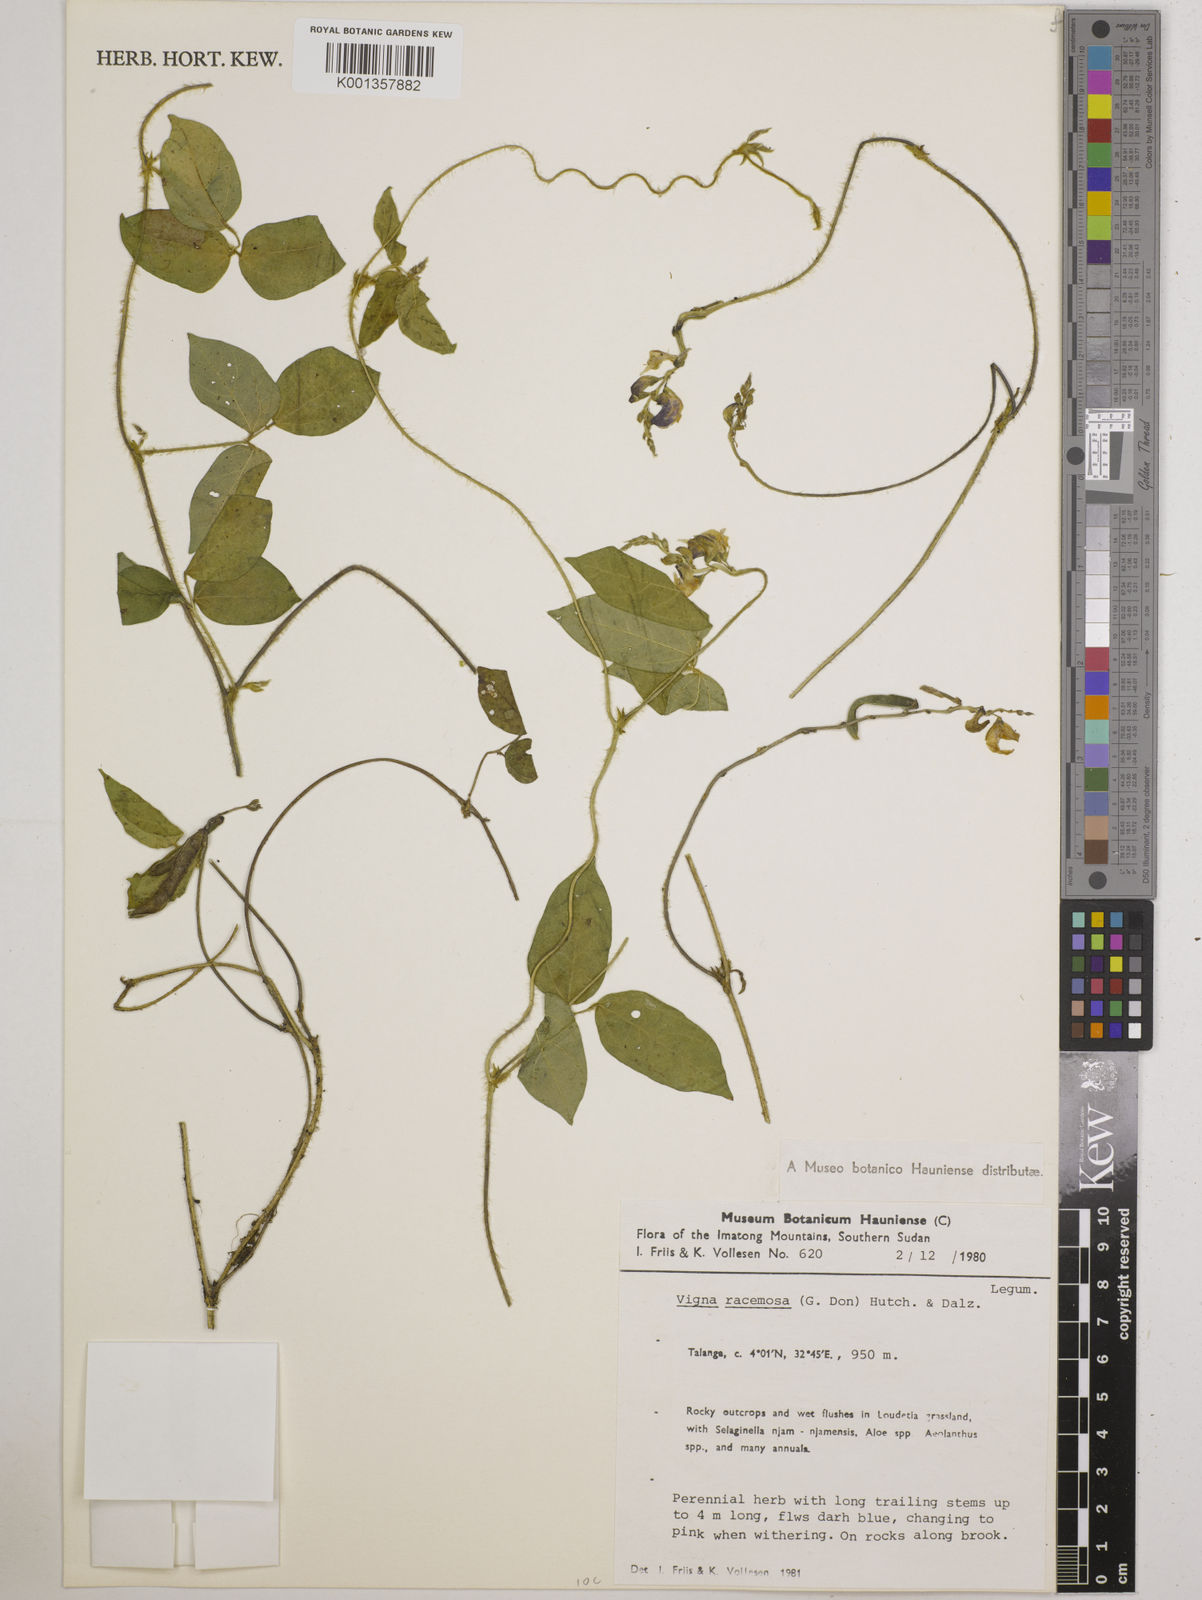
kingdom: Plantae
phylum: Tracheophyta
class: Magnoliopsida
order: Fabales
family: Fabaceae
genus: Vigna
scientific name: Vigna racemosa
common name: Beans not eaten
